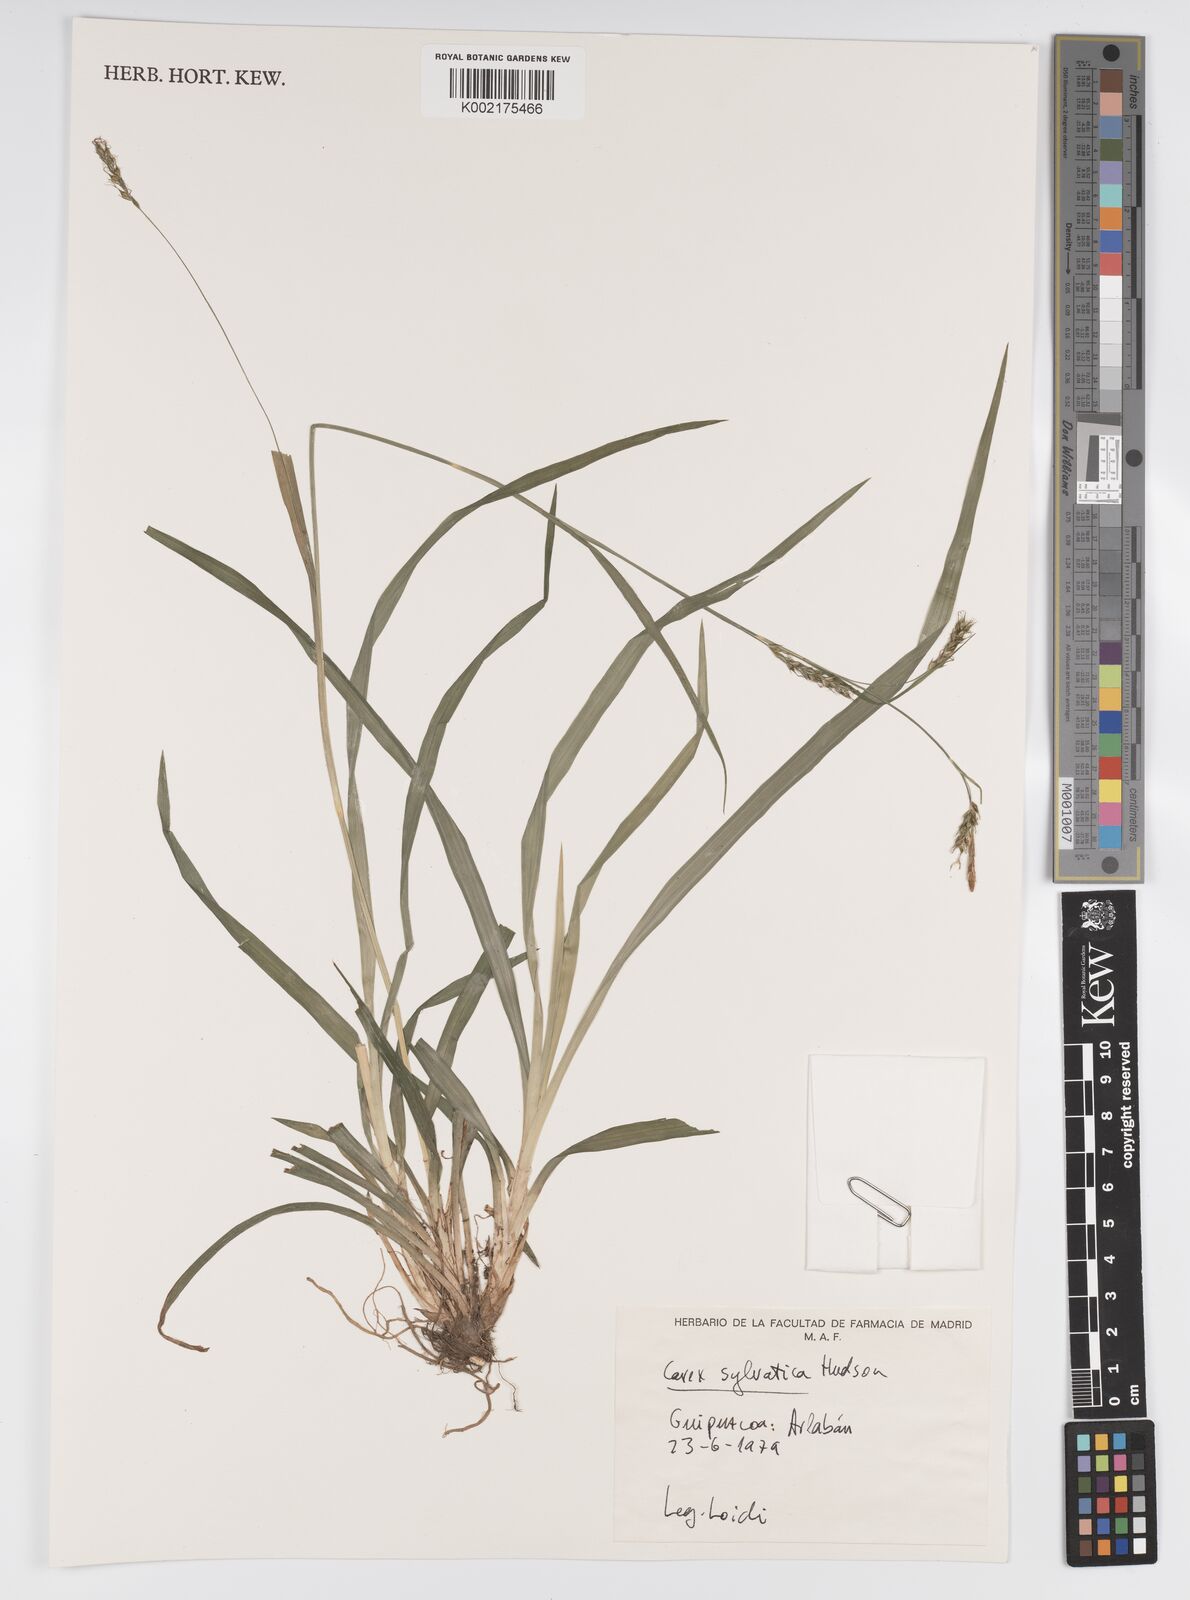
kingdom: Plantae
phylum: Tracheophyta
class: Liliopsida
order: Poales
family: Cyperaceae
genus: Carex
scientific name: Carex sylvatica
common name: Wood-sedge
